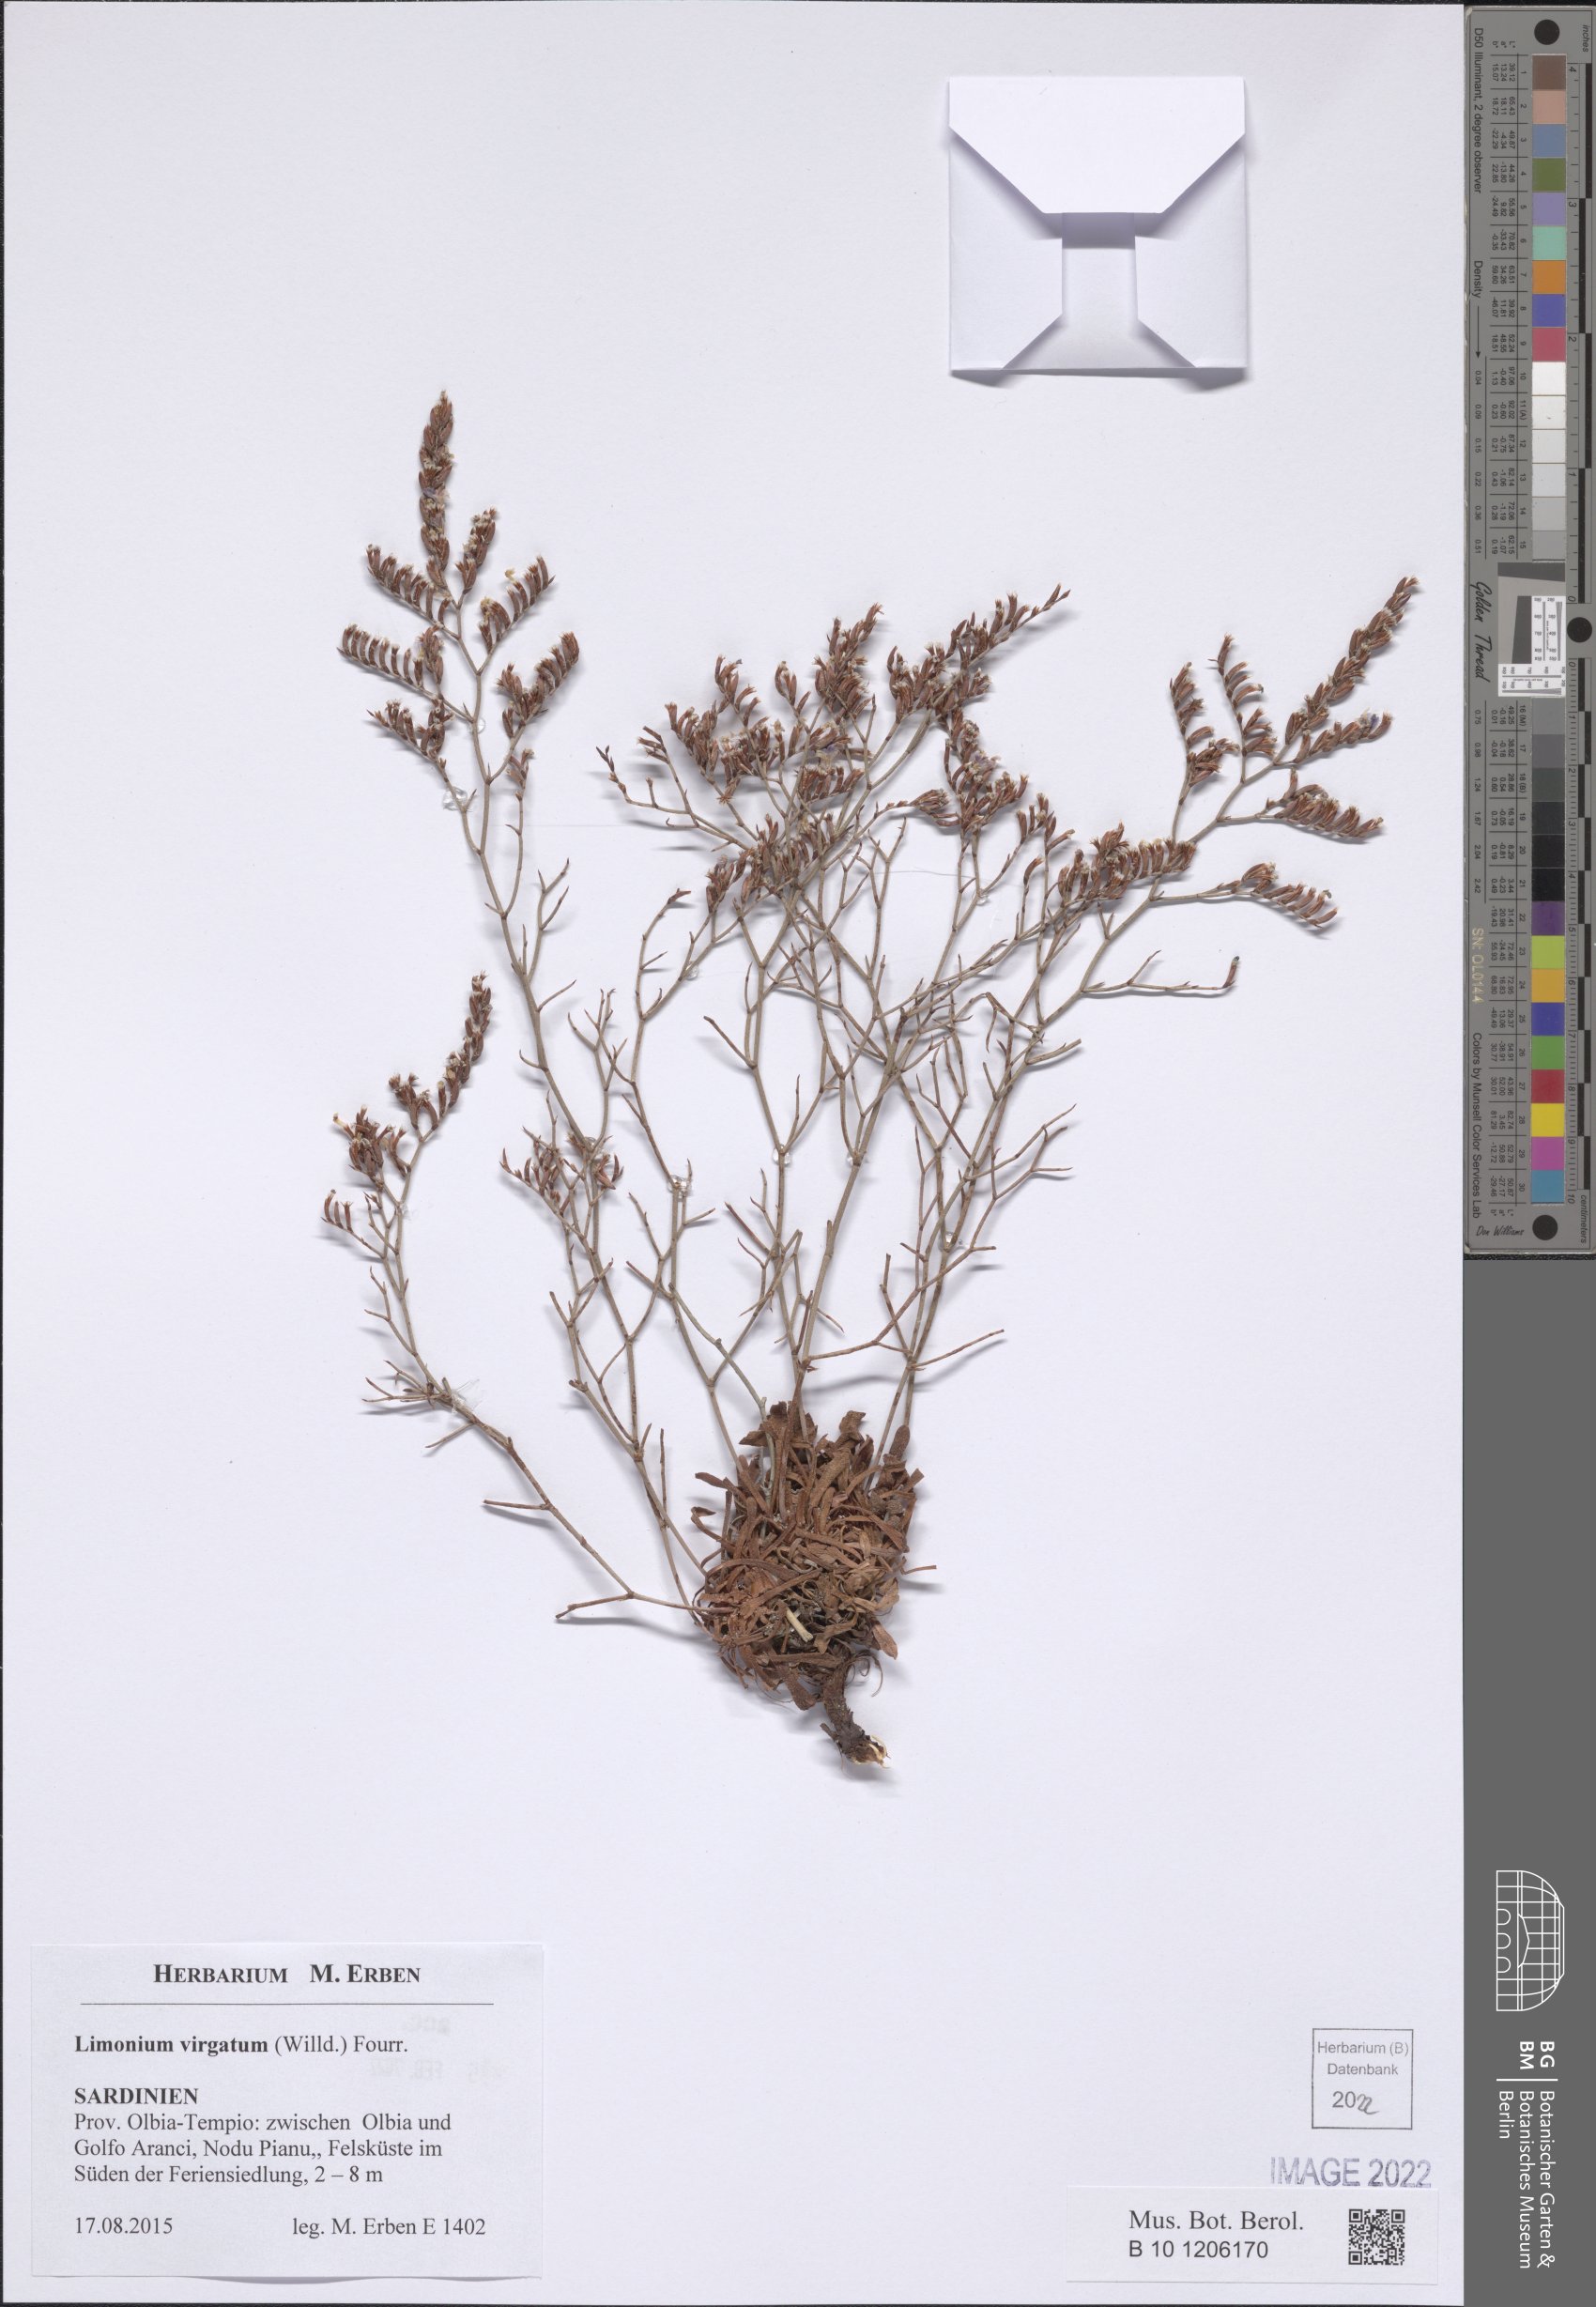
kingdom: Plantae
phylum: Tracheophyta
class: Magnoliopsida
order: Caryophyllales
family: Plumbaginaceae
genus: Limonium
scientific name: Limonium virgatum
